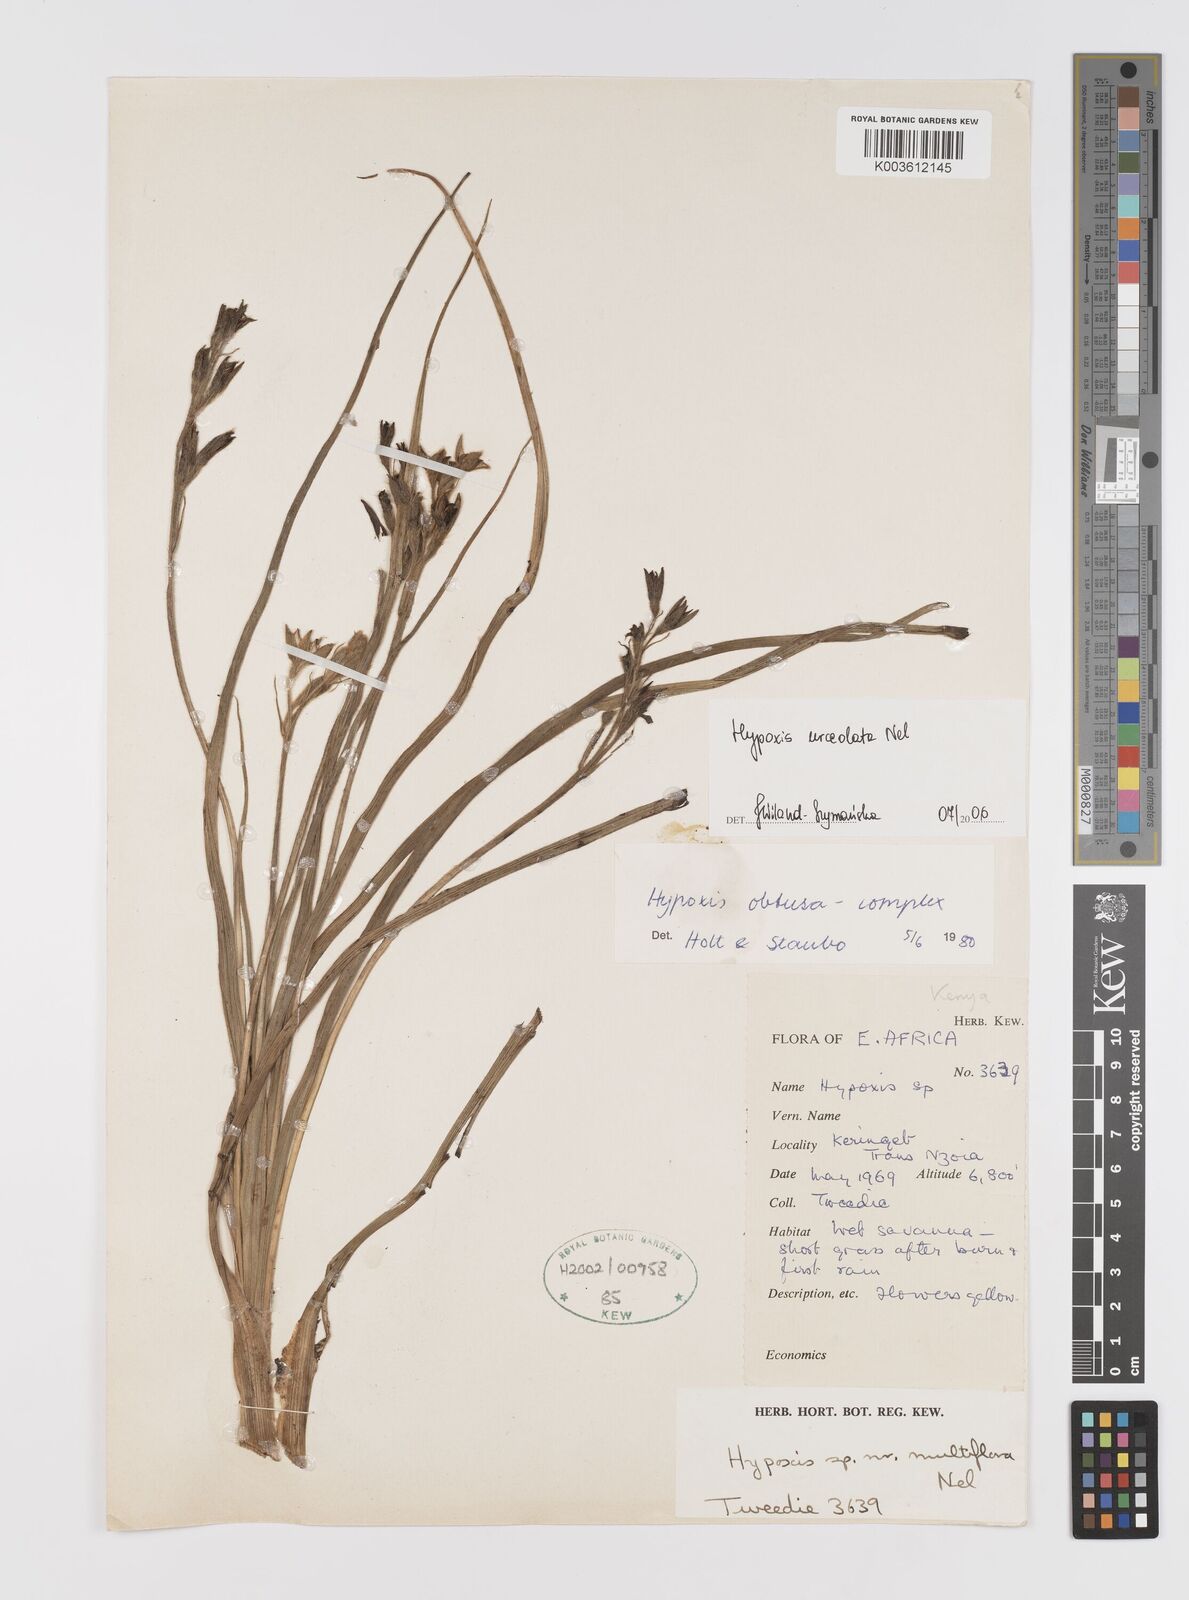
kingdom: Plantae
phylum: Tracheophyta
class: Liliopsida
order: Asparagales
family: Hypoxidaceae
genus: Hypoxis
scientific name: Hypoxis urceolata
